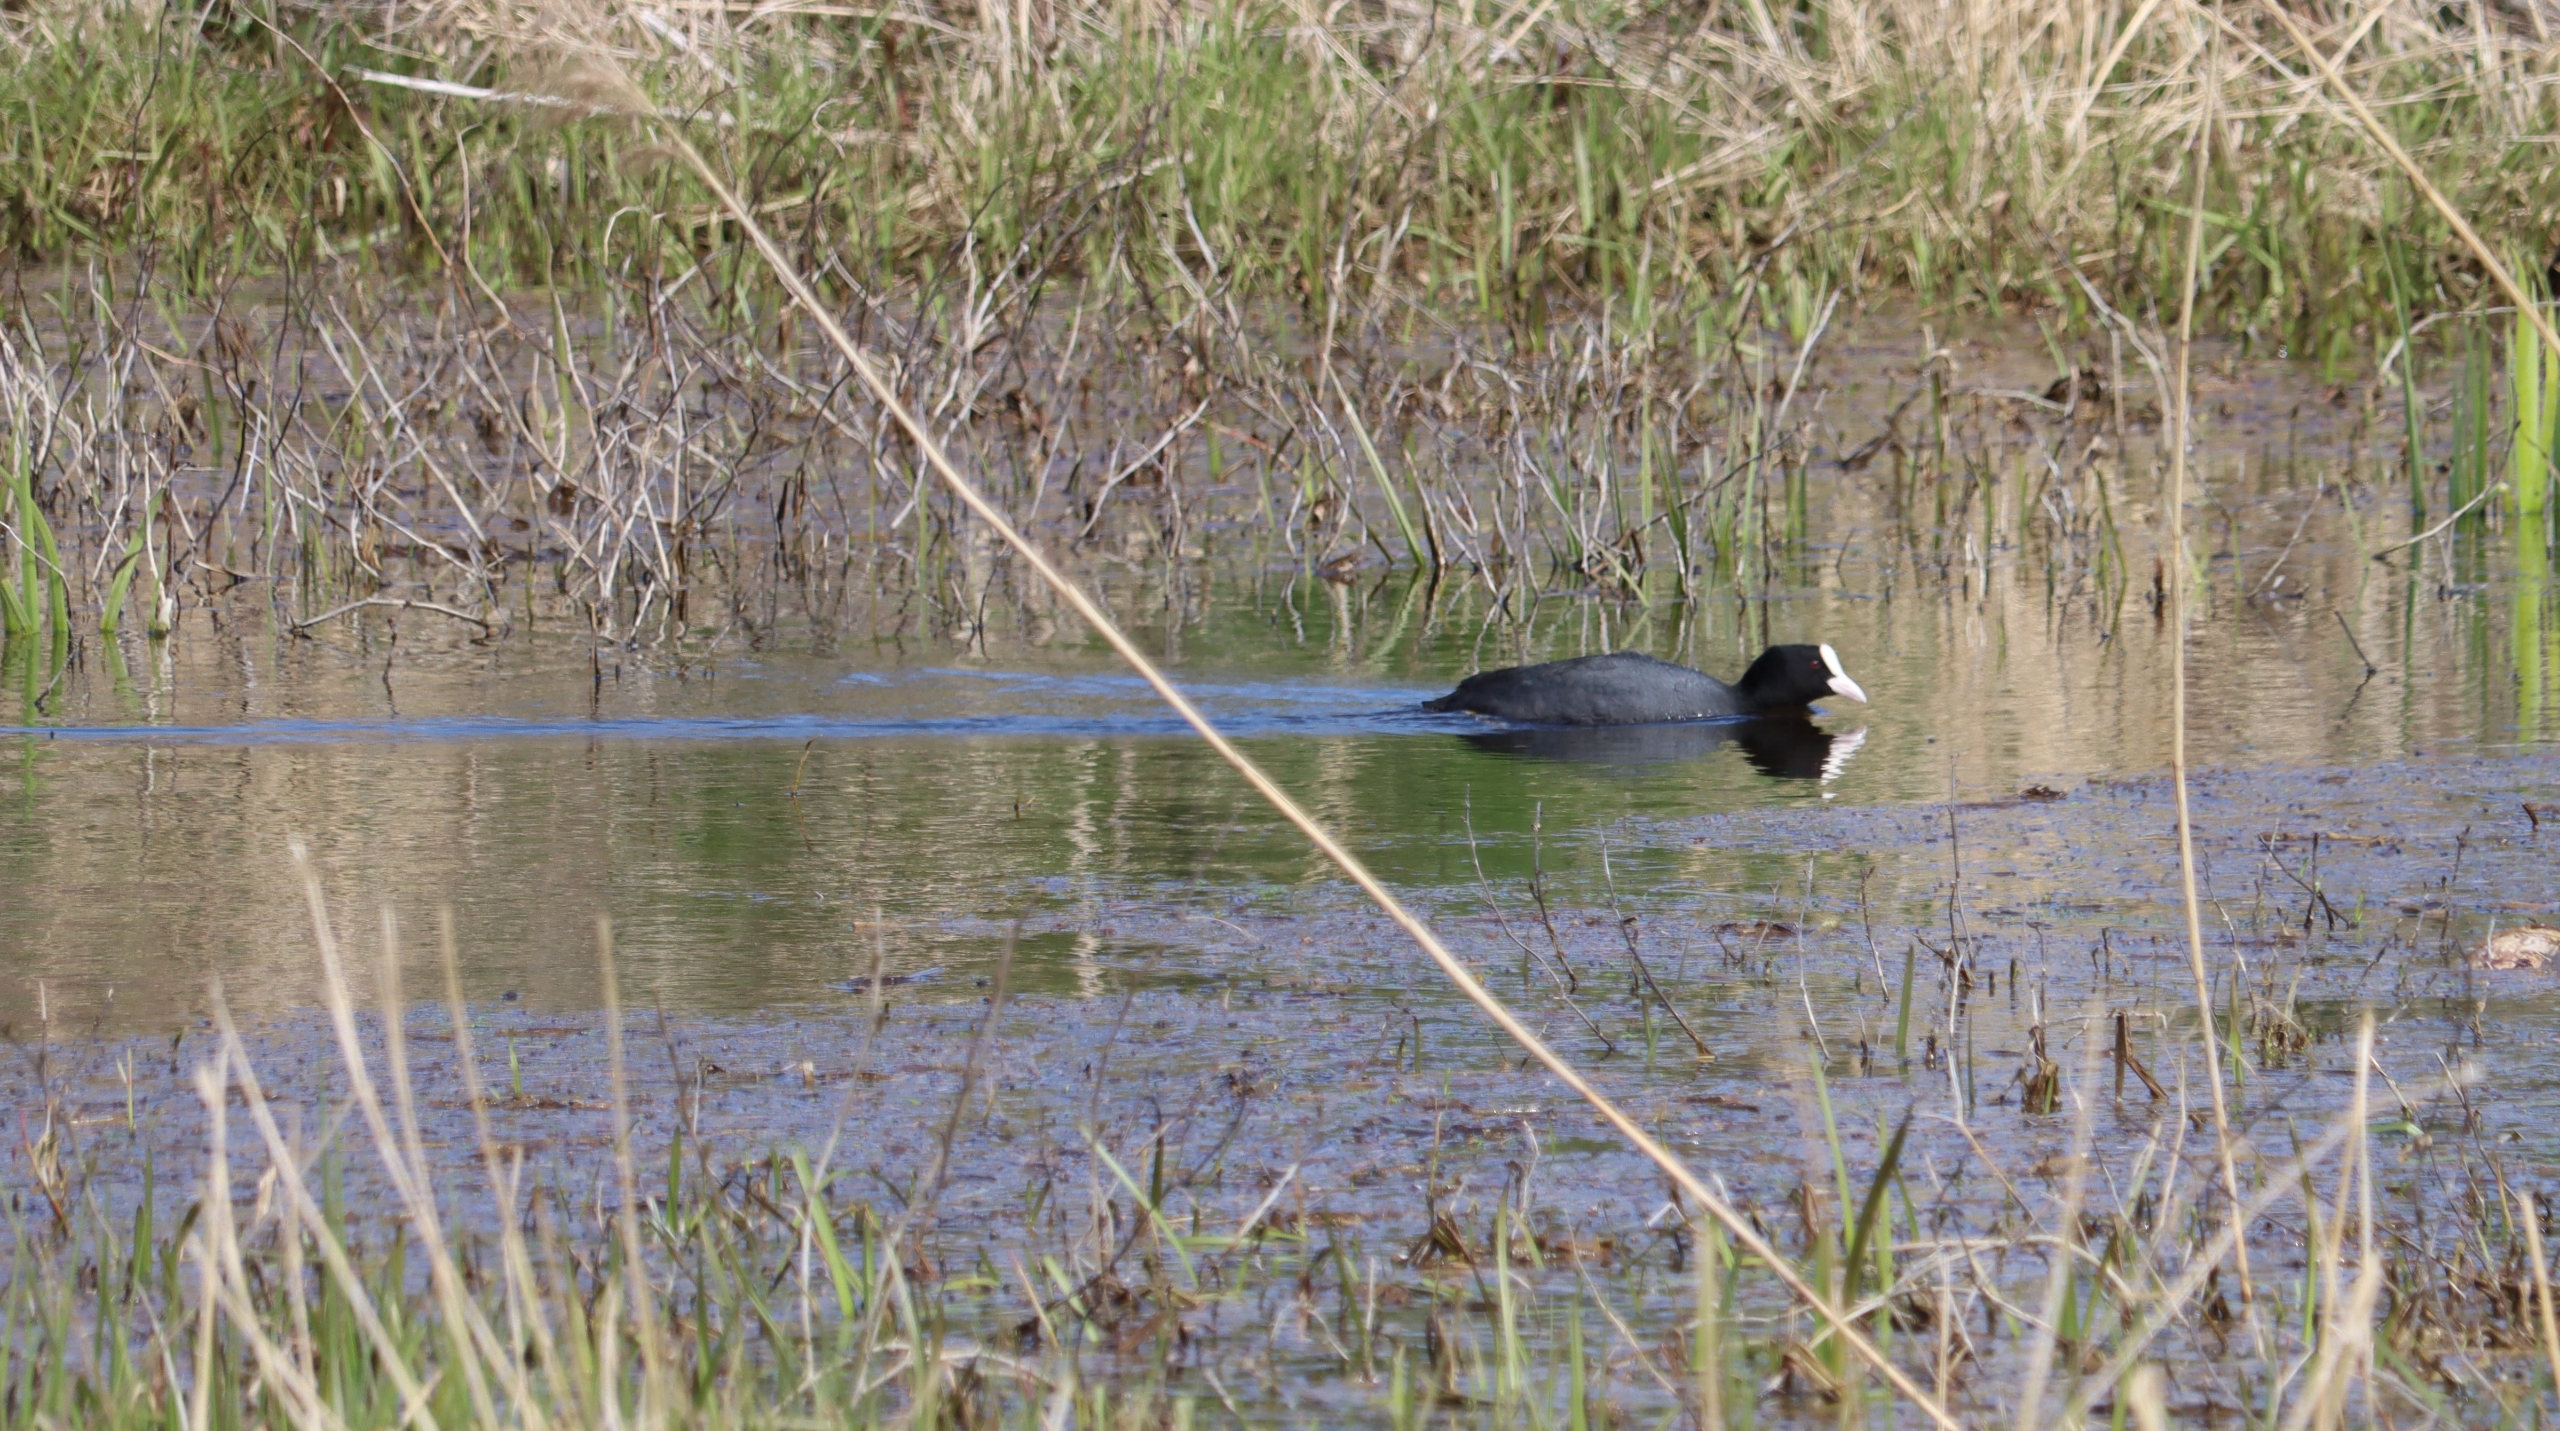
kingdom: Animalia
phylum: Chordata
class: Aves
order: Gruiformes
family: Rallidae
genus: Fulica
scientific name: Fulica atra
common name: Blishøne
